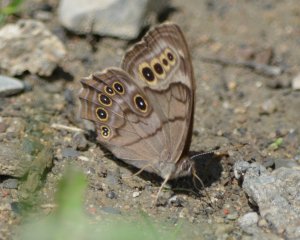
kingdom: Animalia
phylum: Arthropoda
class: Insecta
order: Lepidoptera
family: Nymphalidae
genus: Lethe
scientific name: Lethe anthedon
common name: Northern Pearly-Eye
